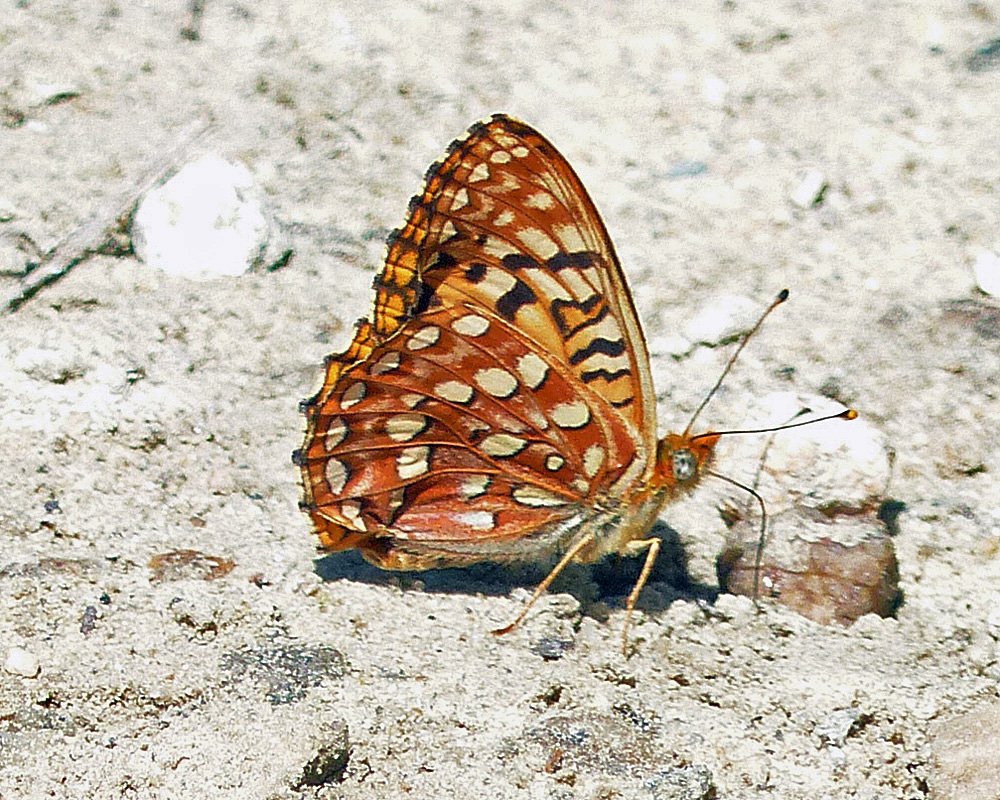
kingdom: Animalia
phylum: Arthropoda
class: Insecta
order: Lepidoptera
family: Nymphalidae
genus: Speyeria
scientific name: Speyeria hydaspe
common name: Hydaspe Fritillary
